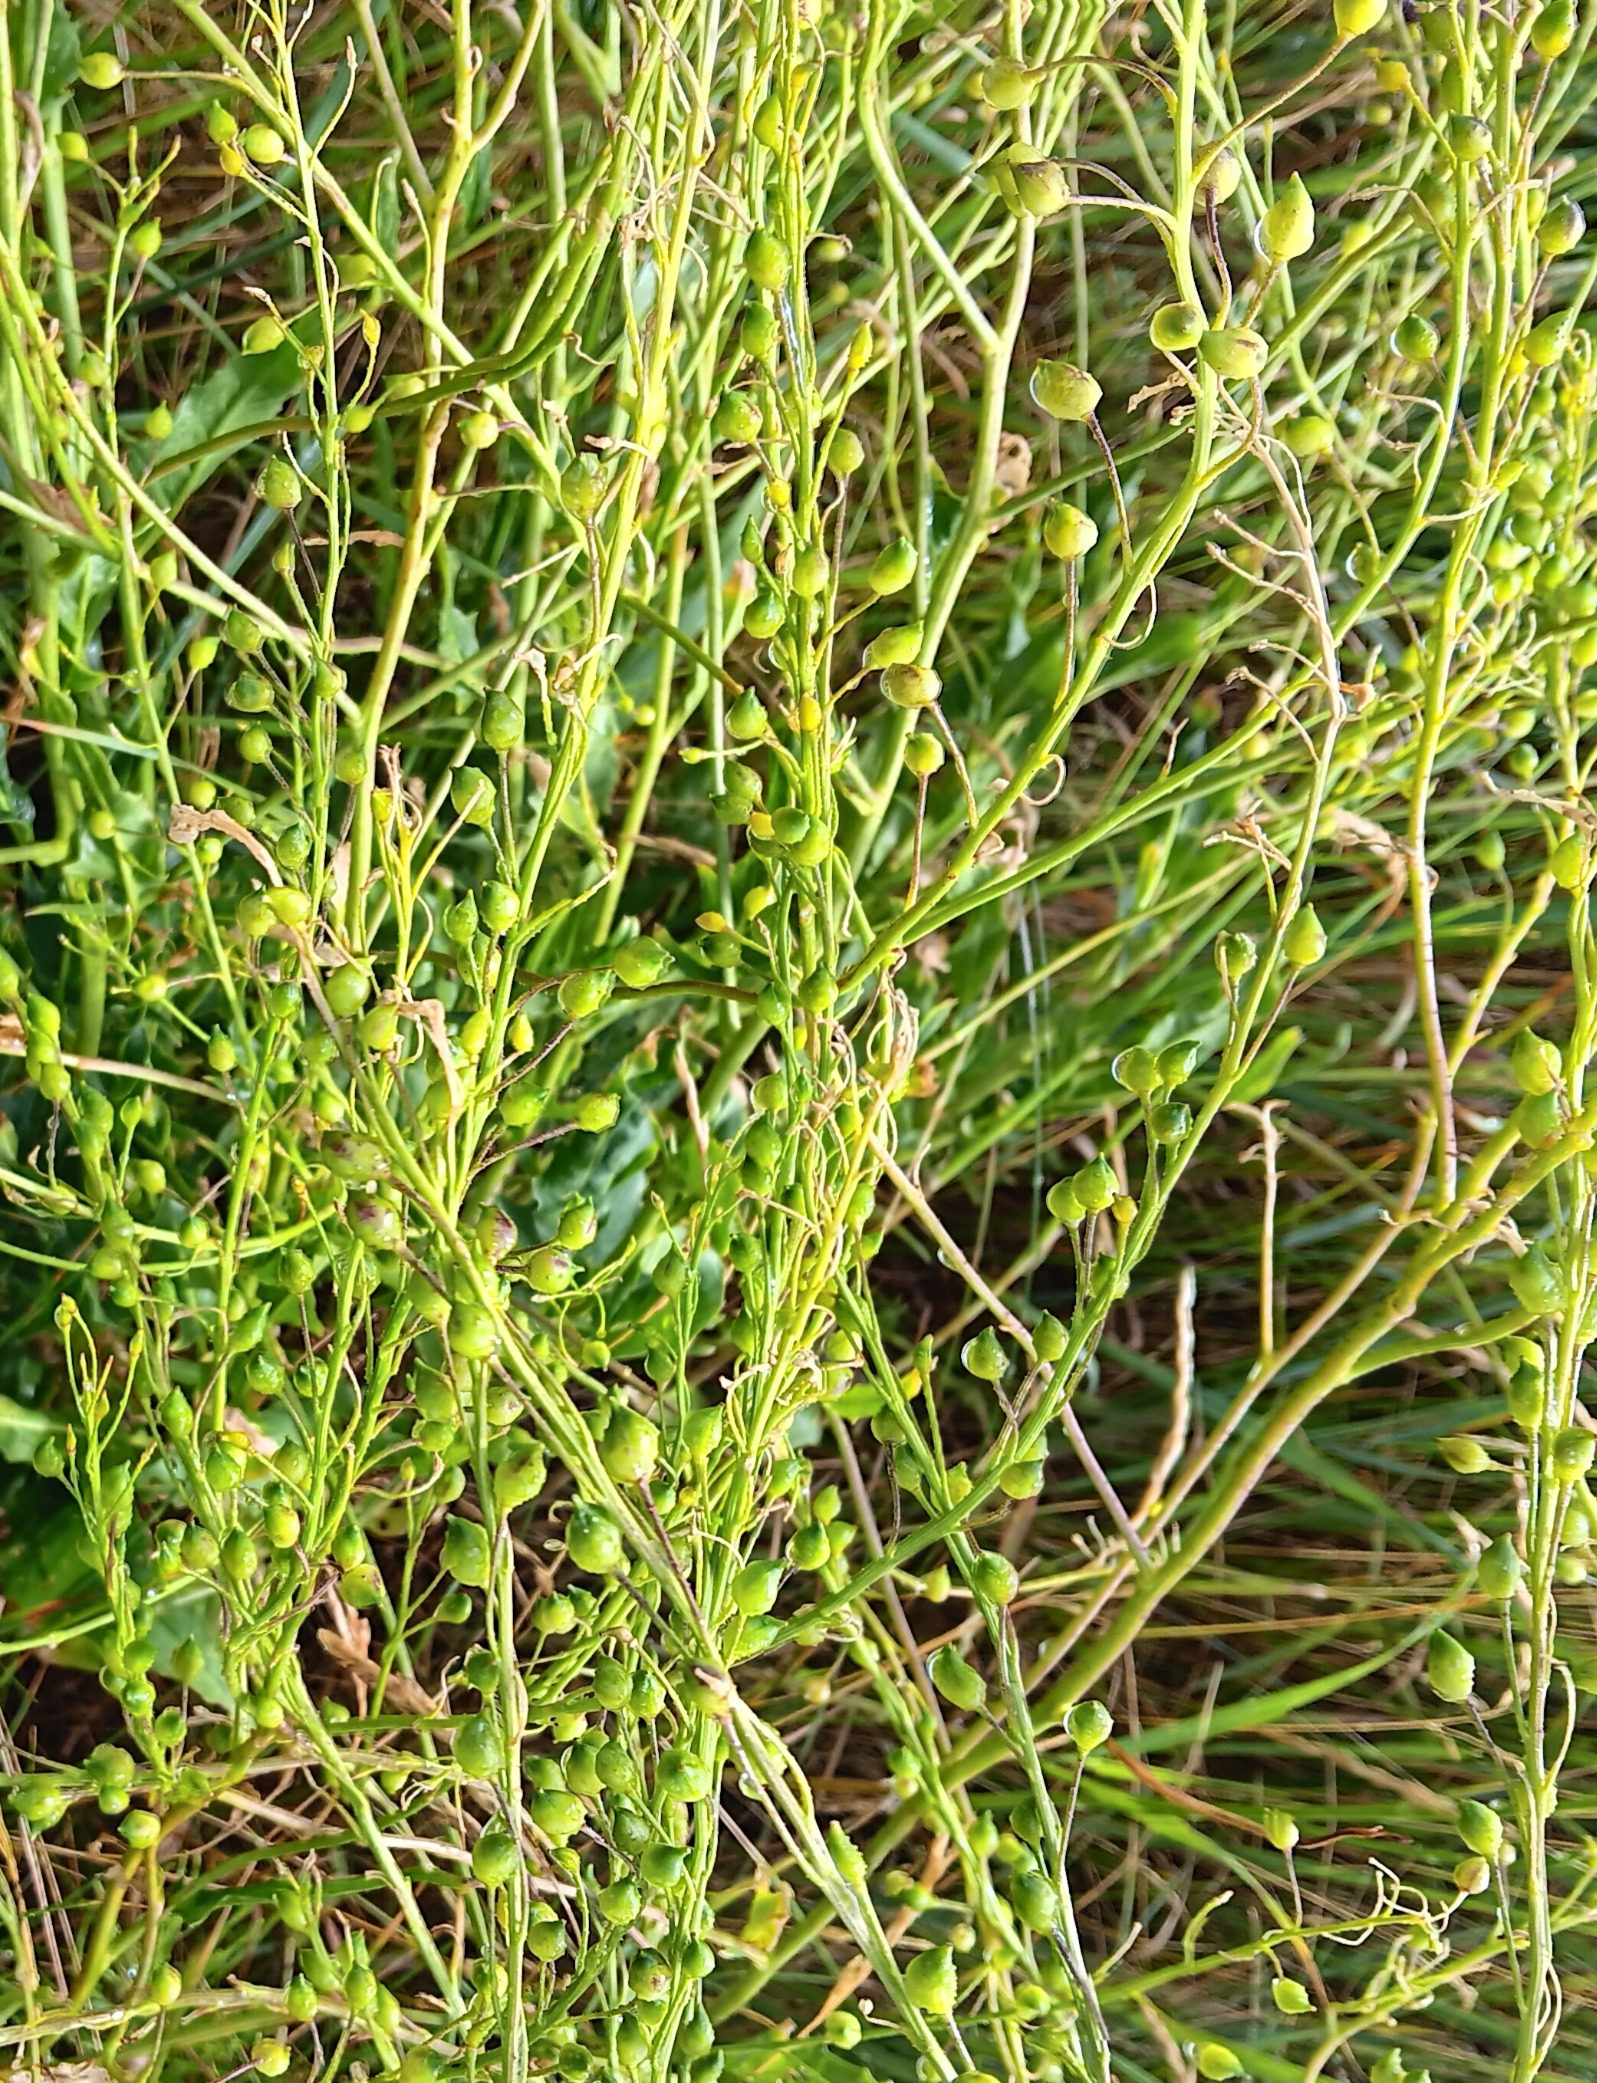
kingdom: Plantae
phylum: Tracheophyta
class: Magnoliopsida
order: Brassicales
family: Brassicaceae
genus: Bunias
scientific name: Bunias orientalis
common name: Takkeklap
